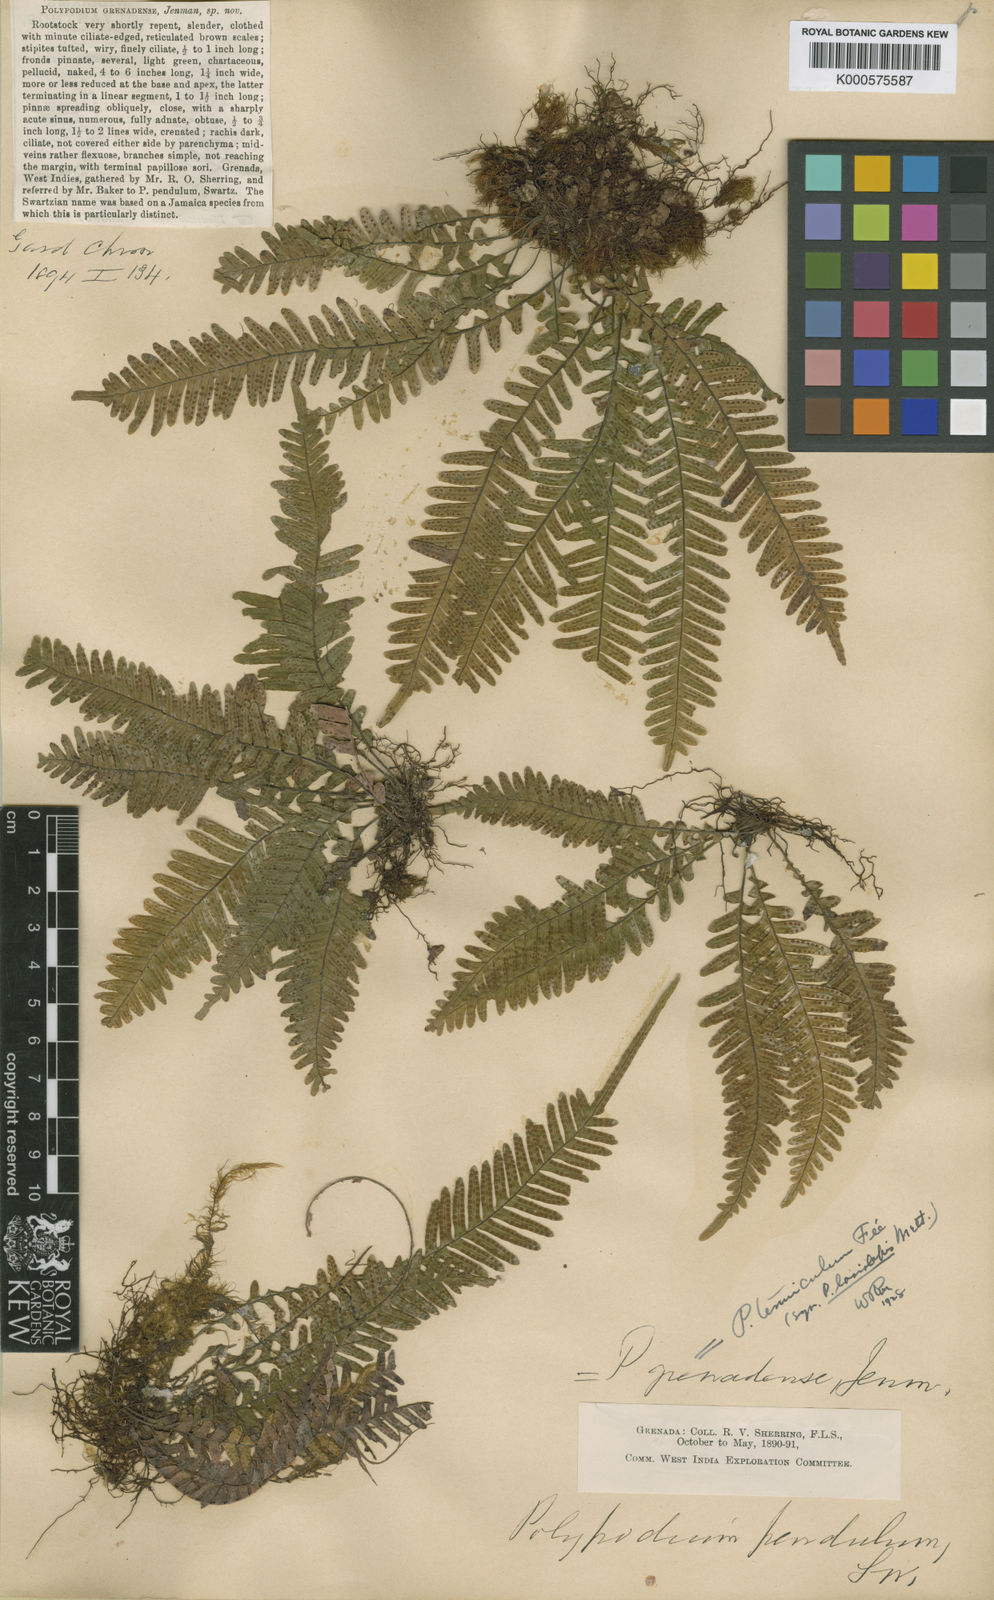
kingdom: Plantae
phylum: Tracheophyta
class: Polypodiopsida
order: Polypodiales
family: Polypodiaceae
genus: Lellingeria
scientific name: Lellingeria
